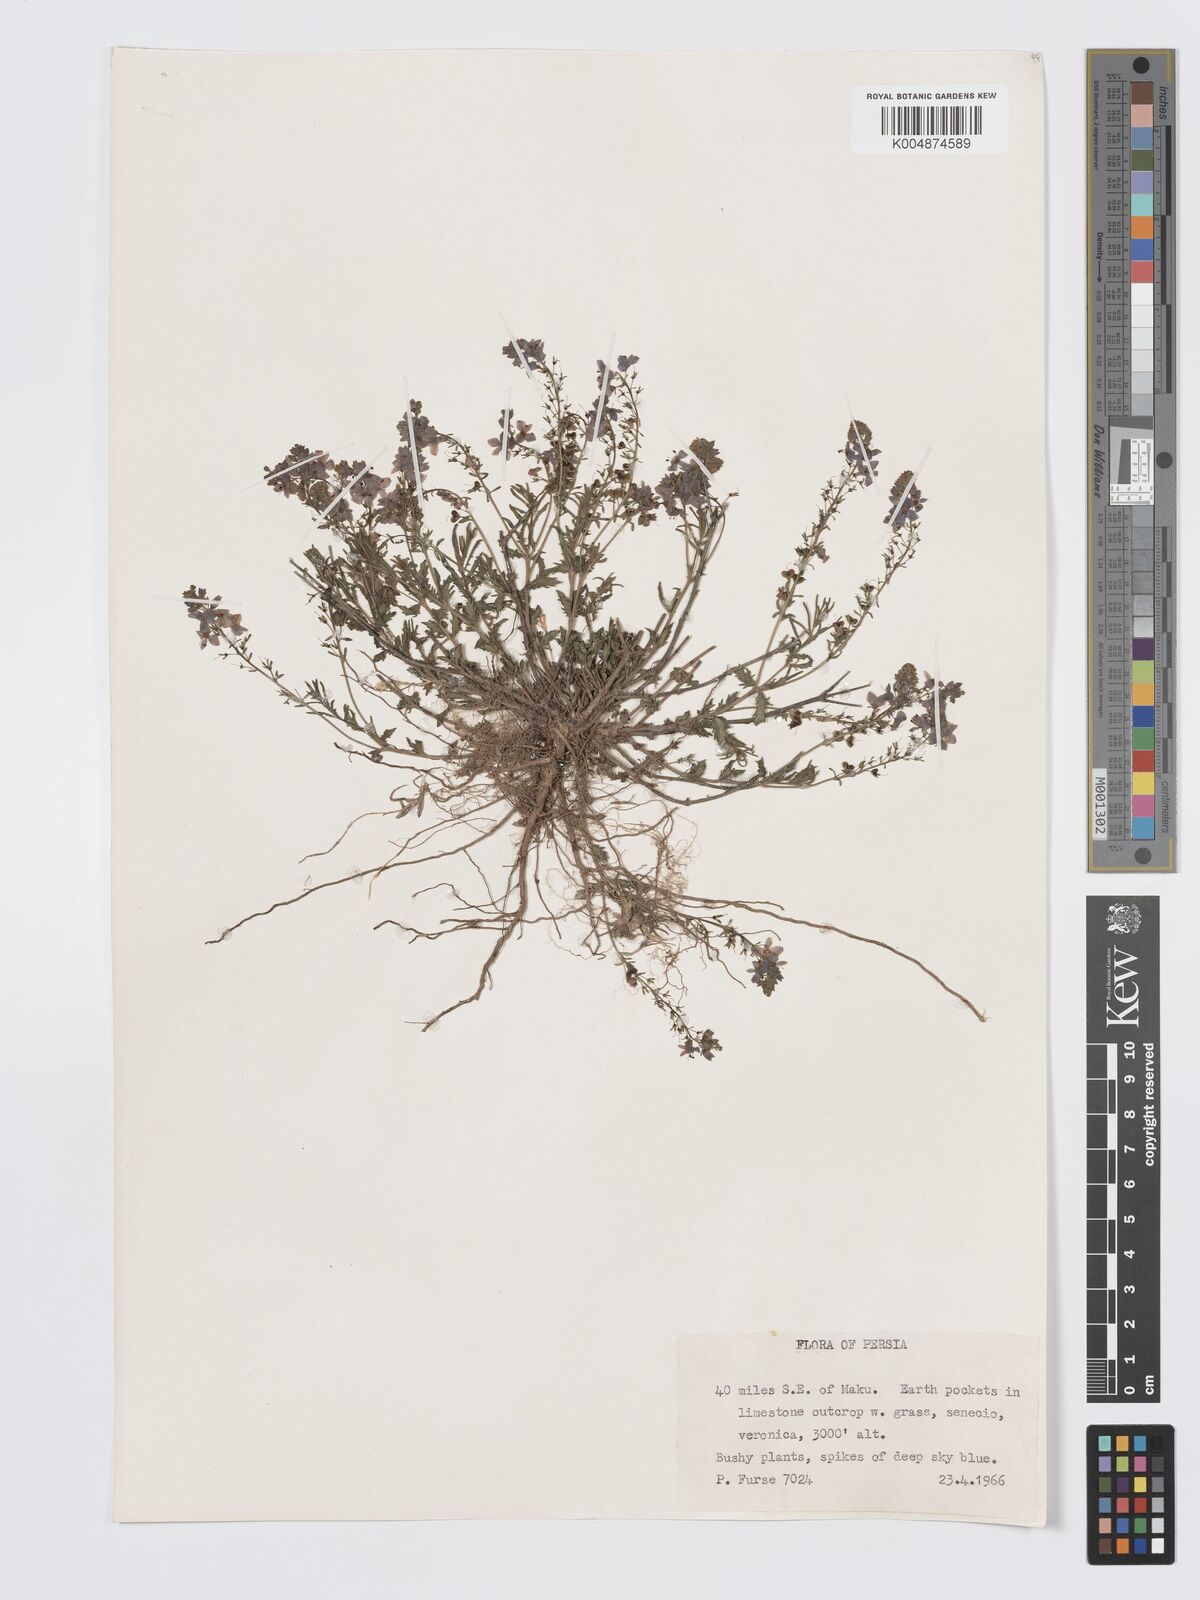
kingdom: Plantae
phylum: Tracheophyta
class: Magnoliopsida
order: Lamiales
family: Plantaginaceae
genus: Veronica
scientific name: Veronica
